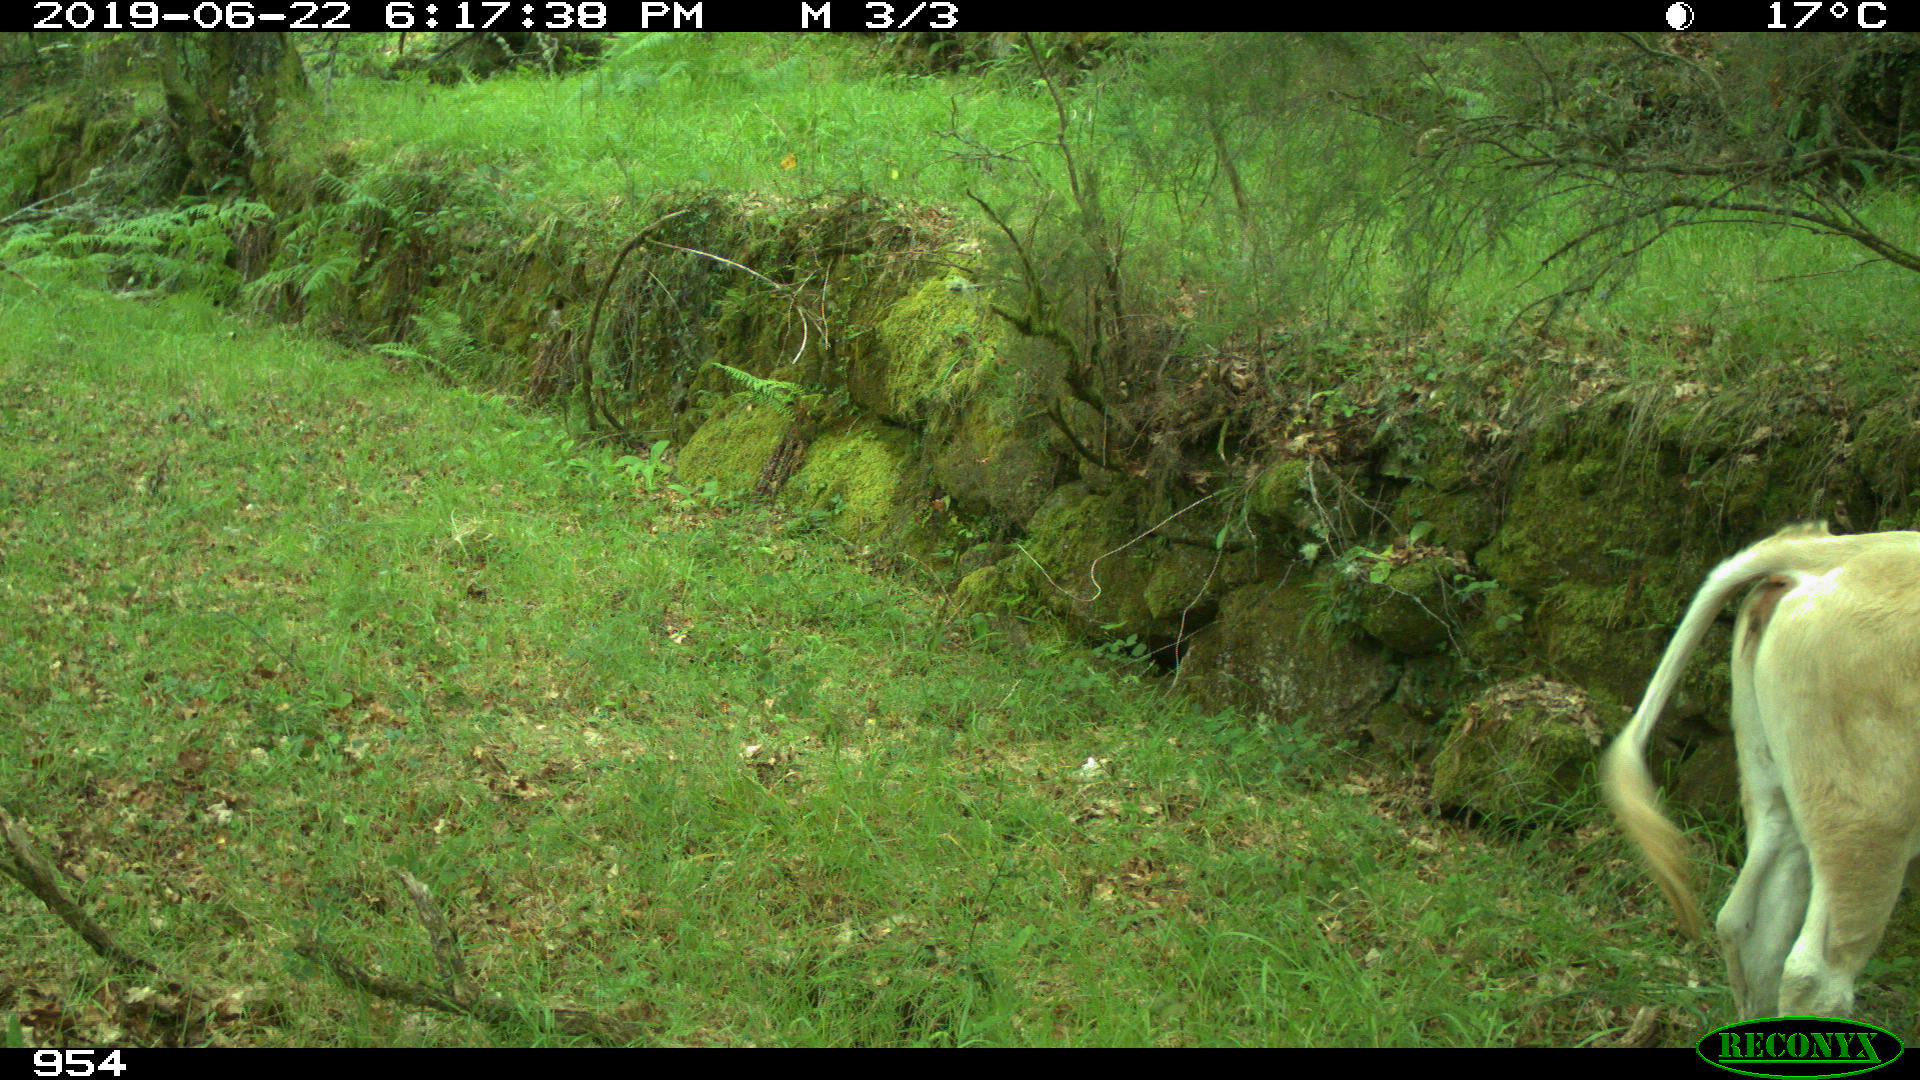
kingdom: Animalia
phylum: Chordata
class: Mammalia
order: Artiodactyla
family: Bovidae
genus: Bos
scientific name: Bos taurus
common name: Domesticated cattle
